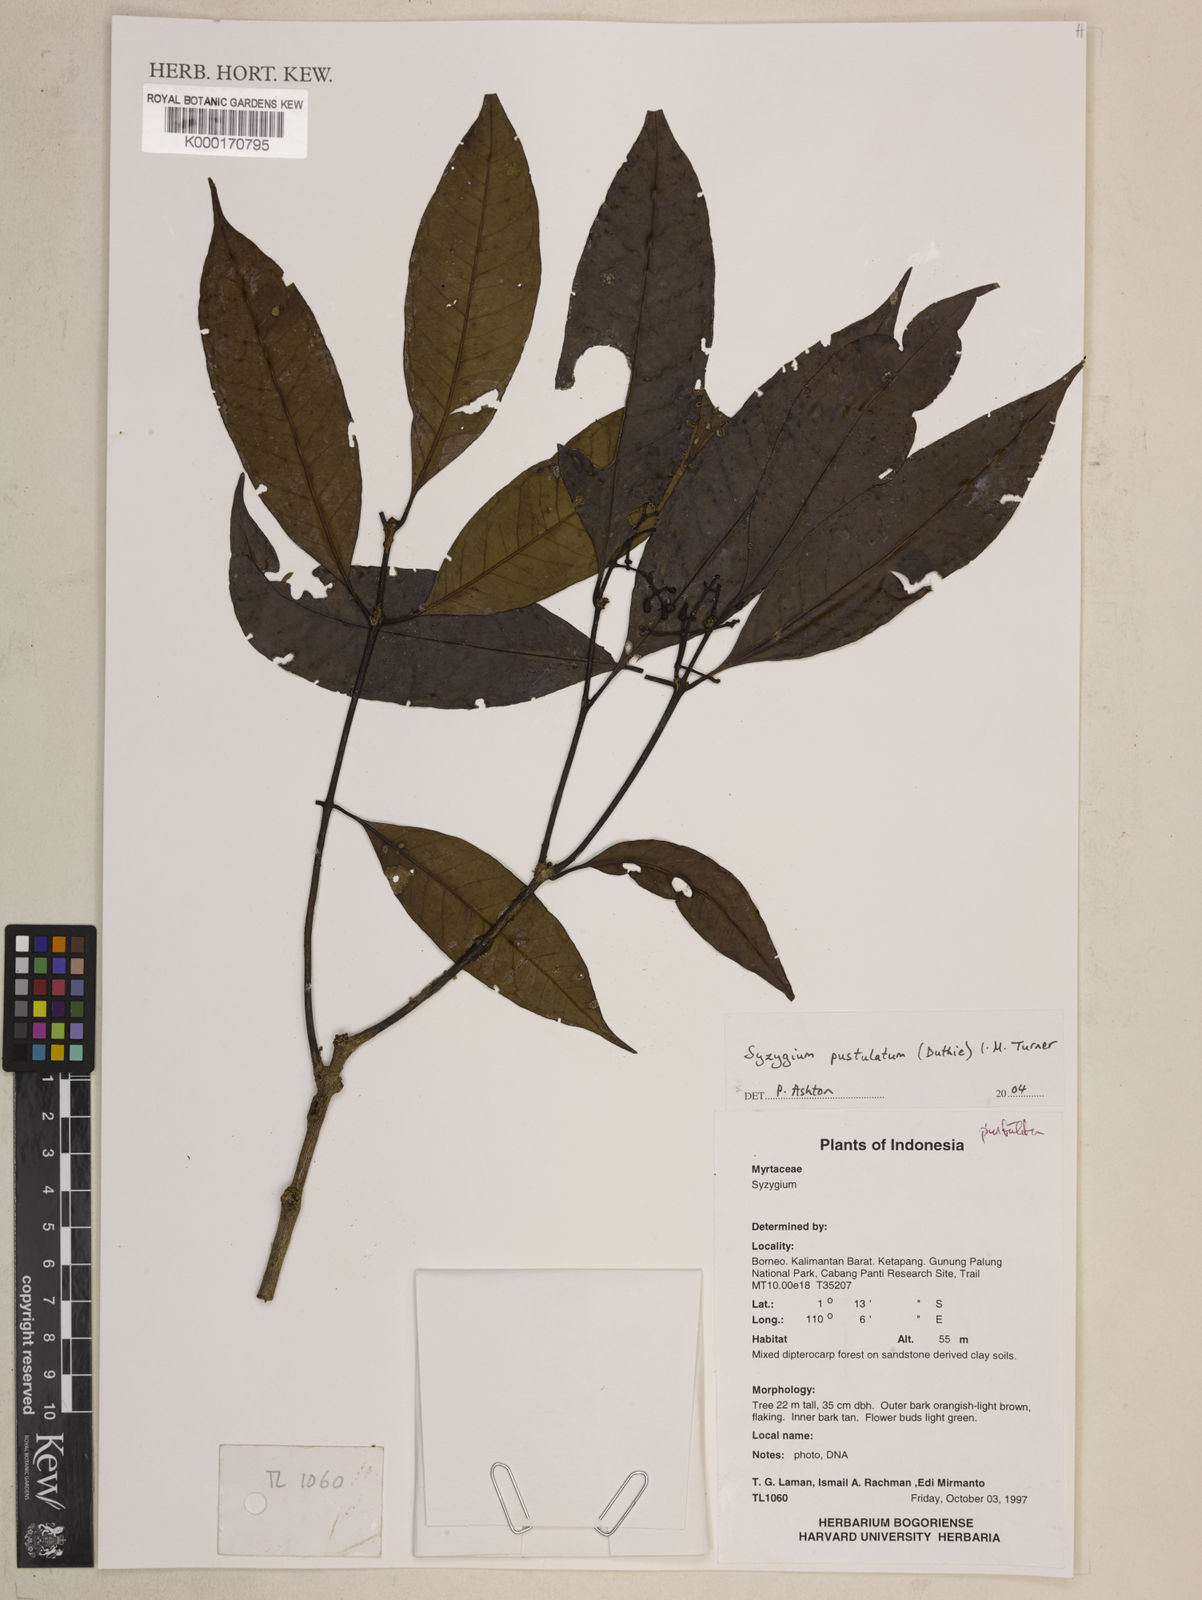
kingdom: Plantae
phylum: Tracheophyta
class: Magnoliopsida
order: Myrtales
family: Myrtaceae
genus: Syzygium
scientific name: Syzygium
